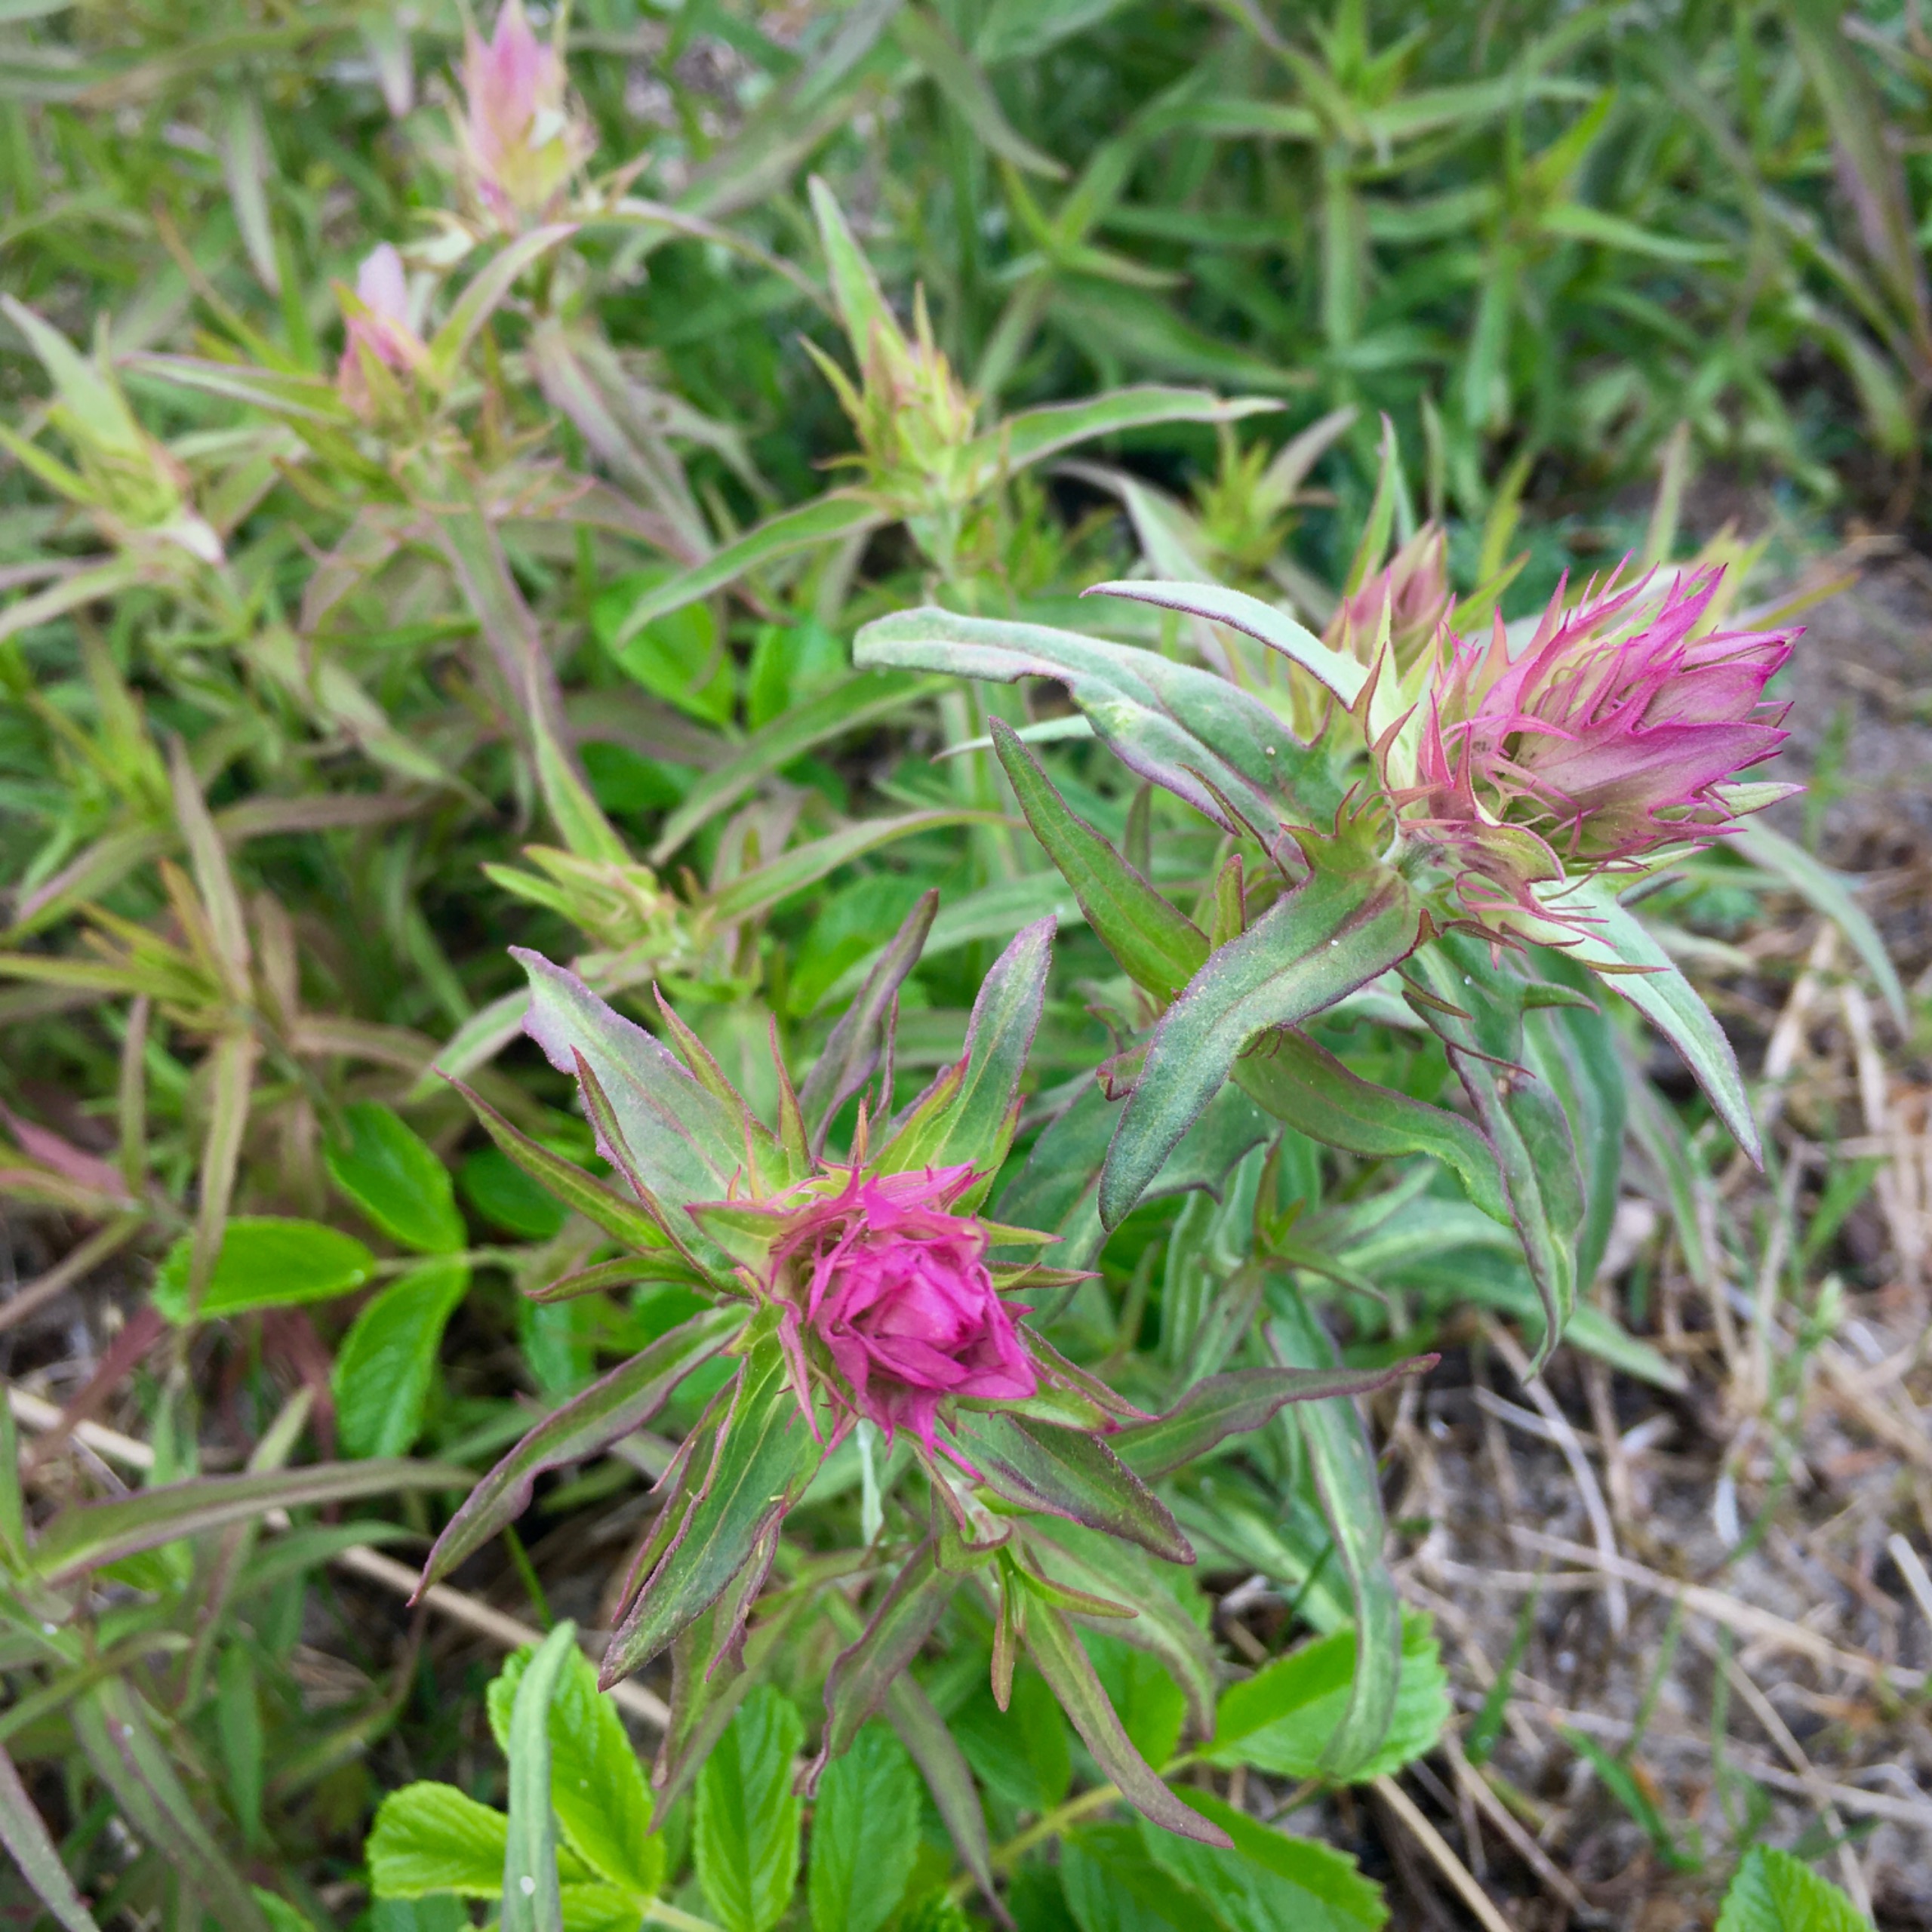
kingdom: Plantae
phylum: Tracheophyta
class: Magnoliopsida
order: Lamiales
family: Orobanchaceae
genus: Melampyrum
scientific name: Melampyrum arvense
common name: Ager-kohvede
